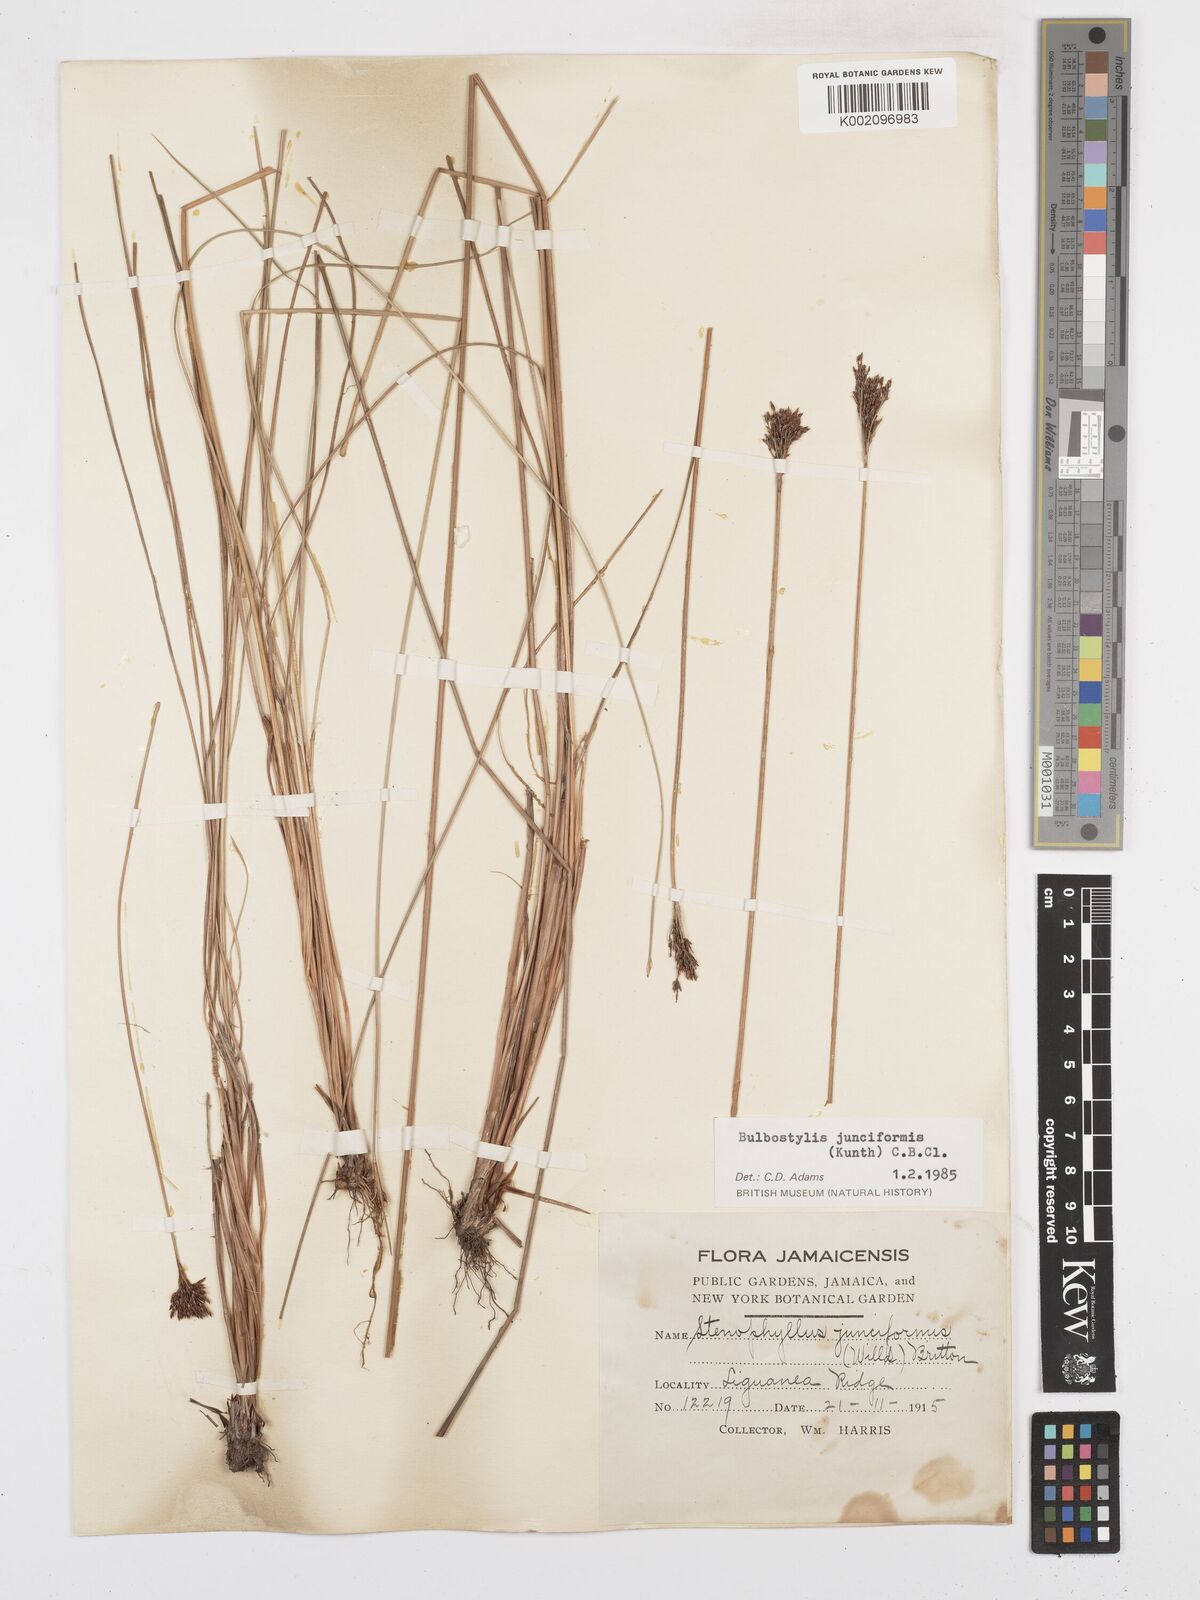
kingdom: Plantae
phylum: Tracheophyta
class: Liliopsida
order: Poales
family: Cyperaceae
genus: Bulbostylis
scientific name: Bulbostylis junciformis
